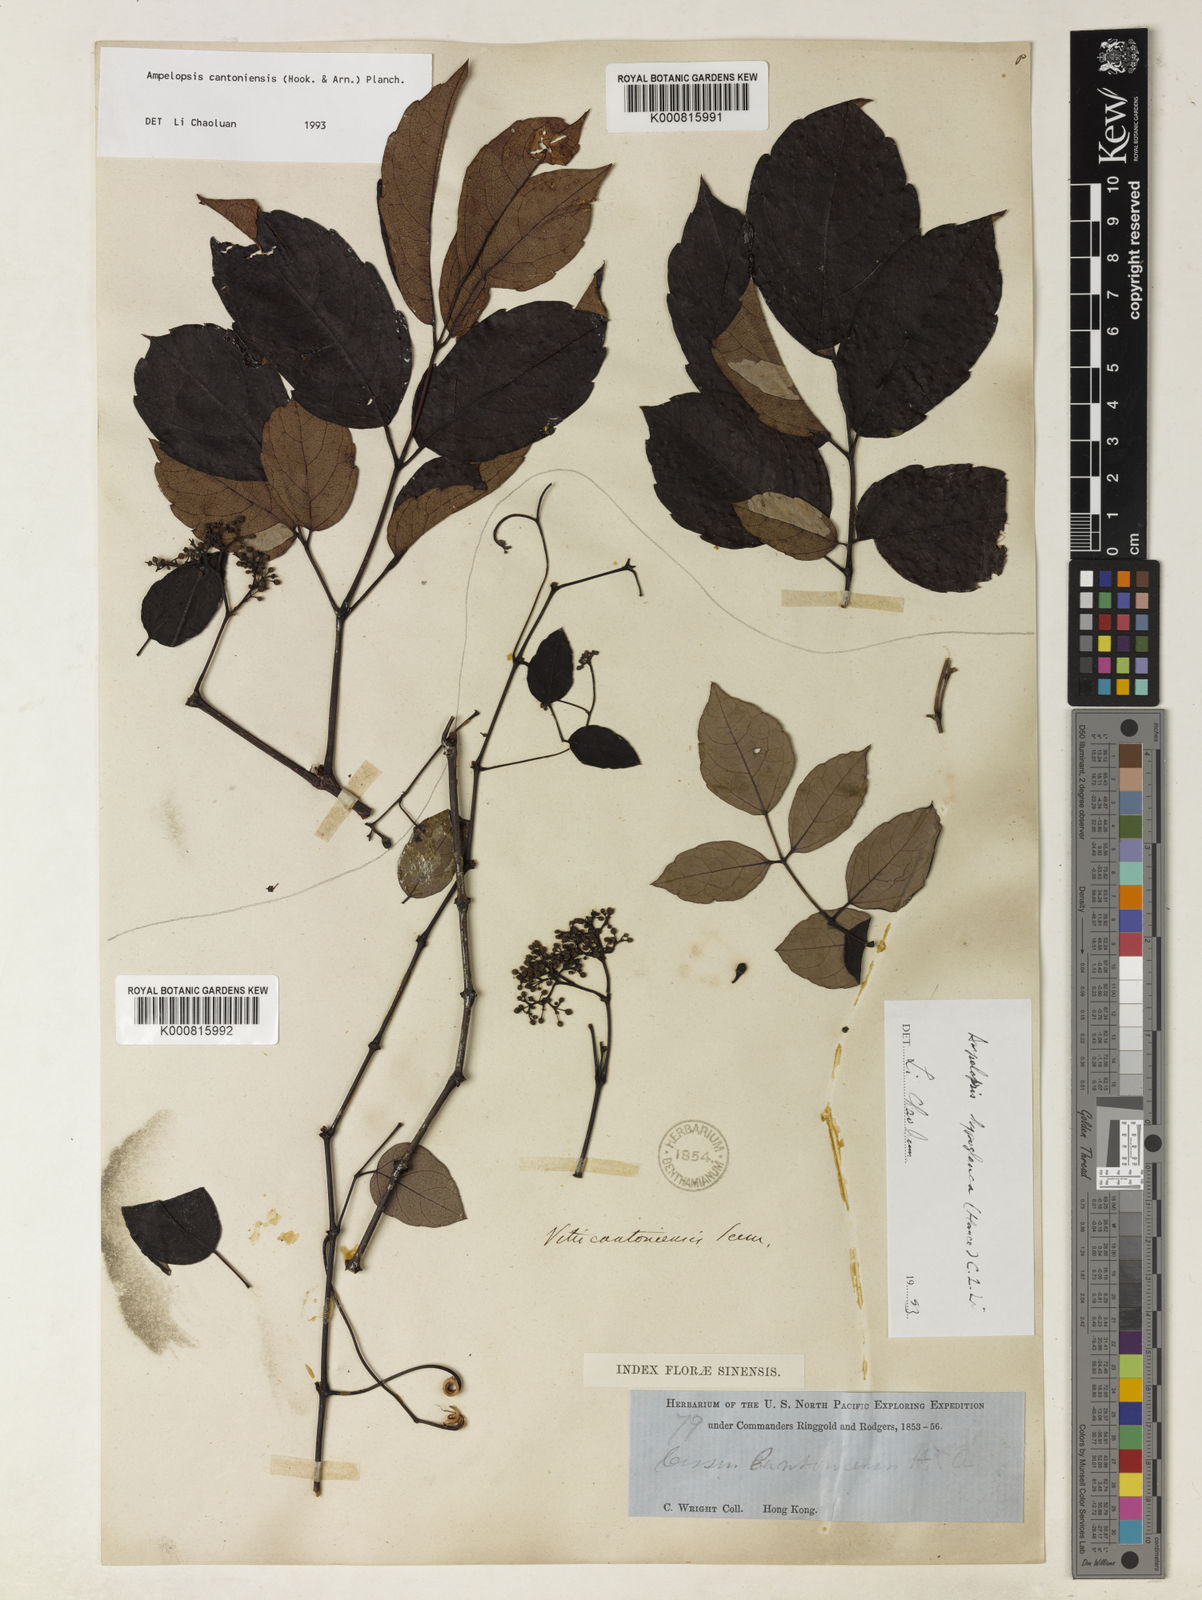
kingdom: Plantae
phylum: Tracheophyta
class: Magnoliopsida
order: Vitales
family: Vitaceae
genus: Ampelopsis
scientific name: Ampelopsis
